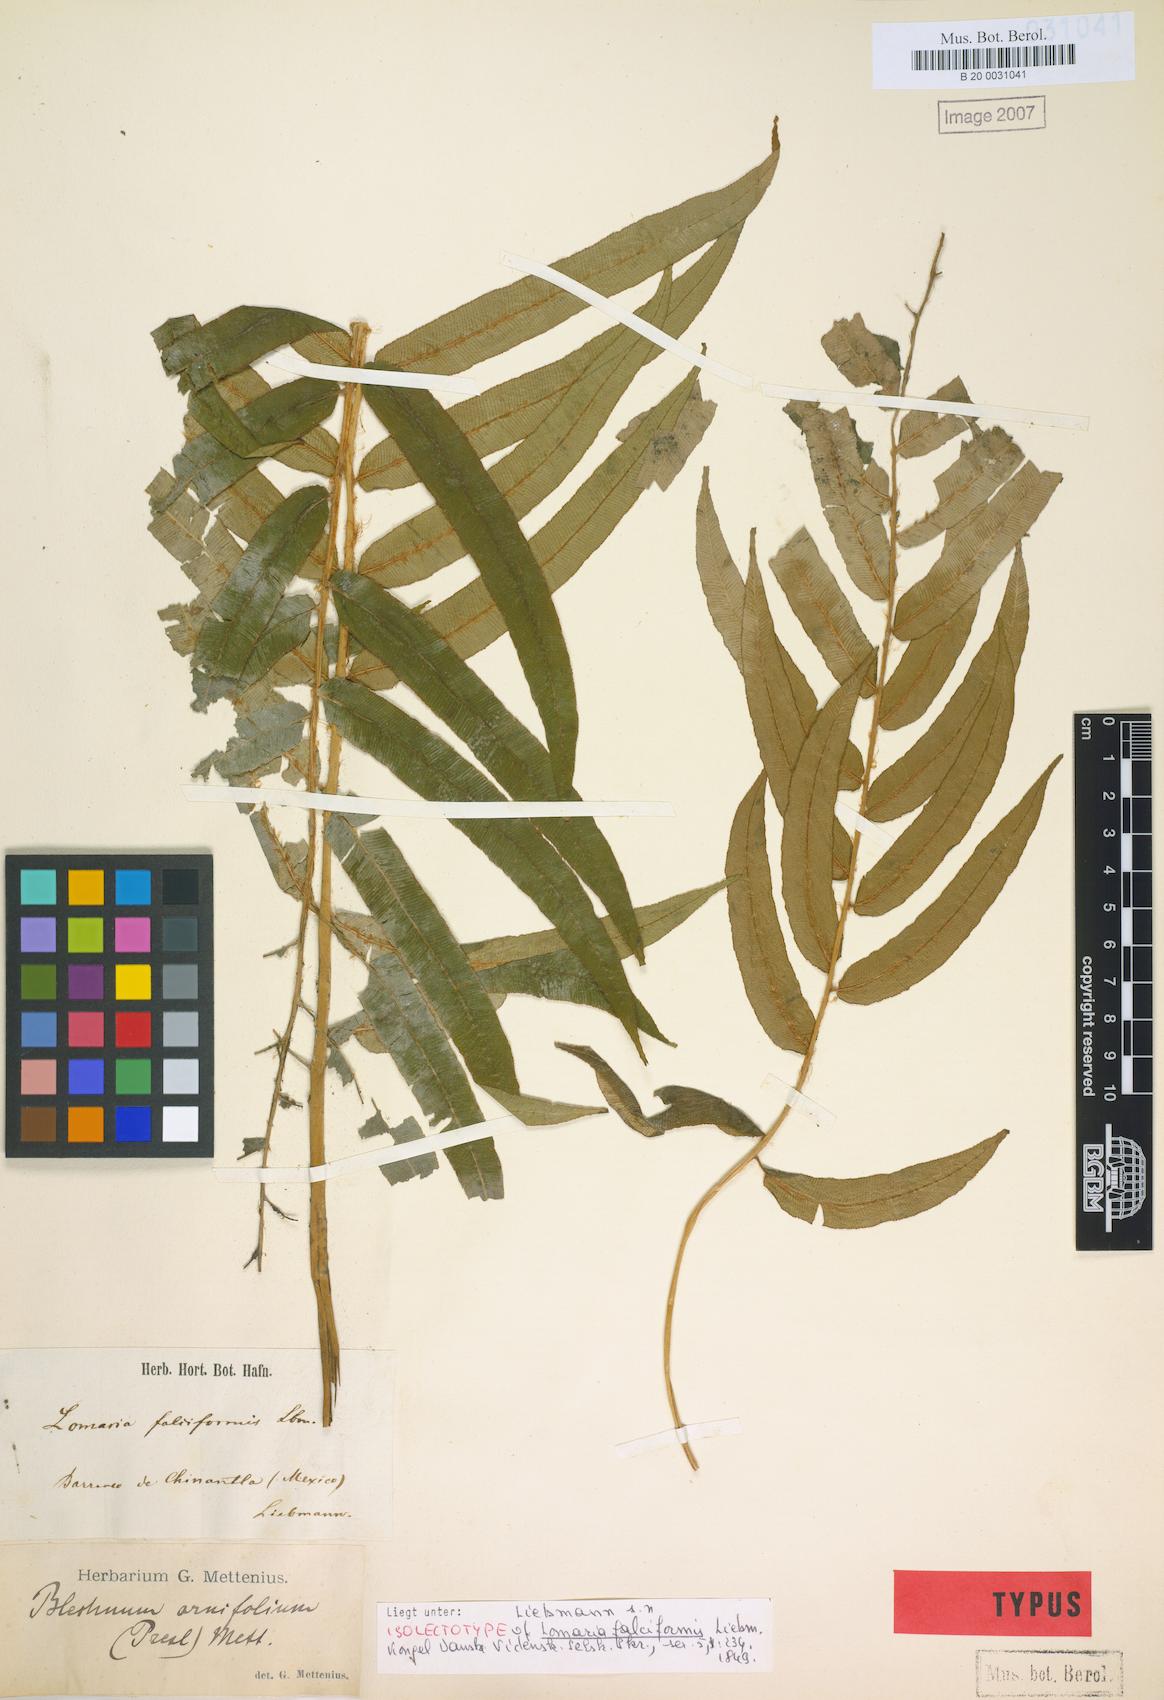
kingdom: Plantae
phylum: Tracheophyta
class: Polypodiopsida
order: Polypodiales
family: Blechnaceae
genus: Parablechnum
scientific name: Parablechnum falciforme
